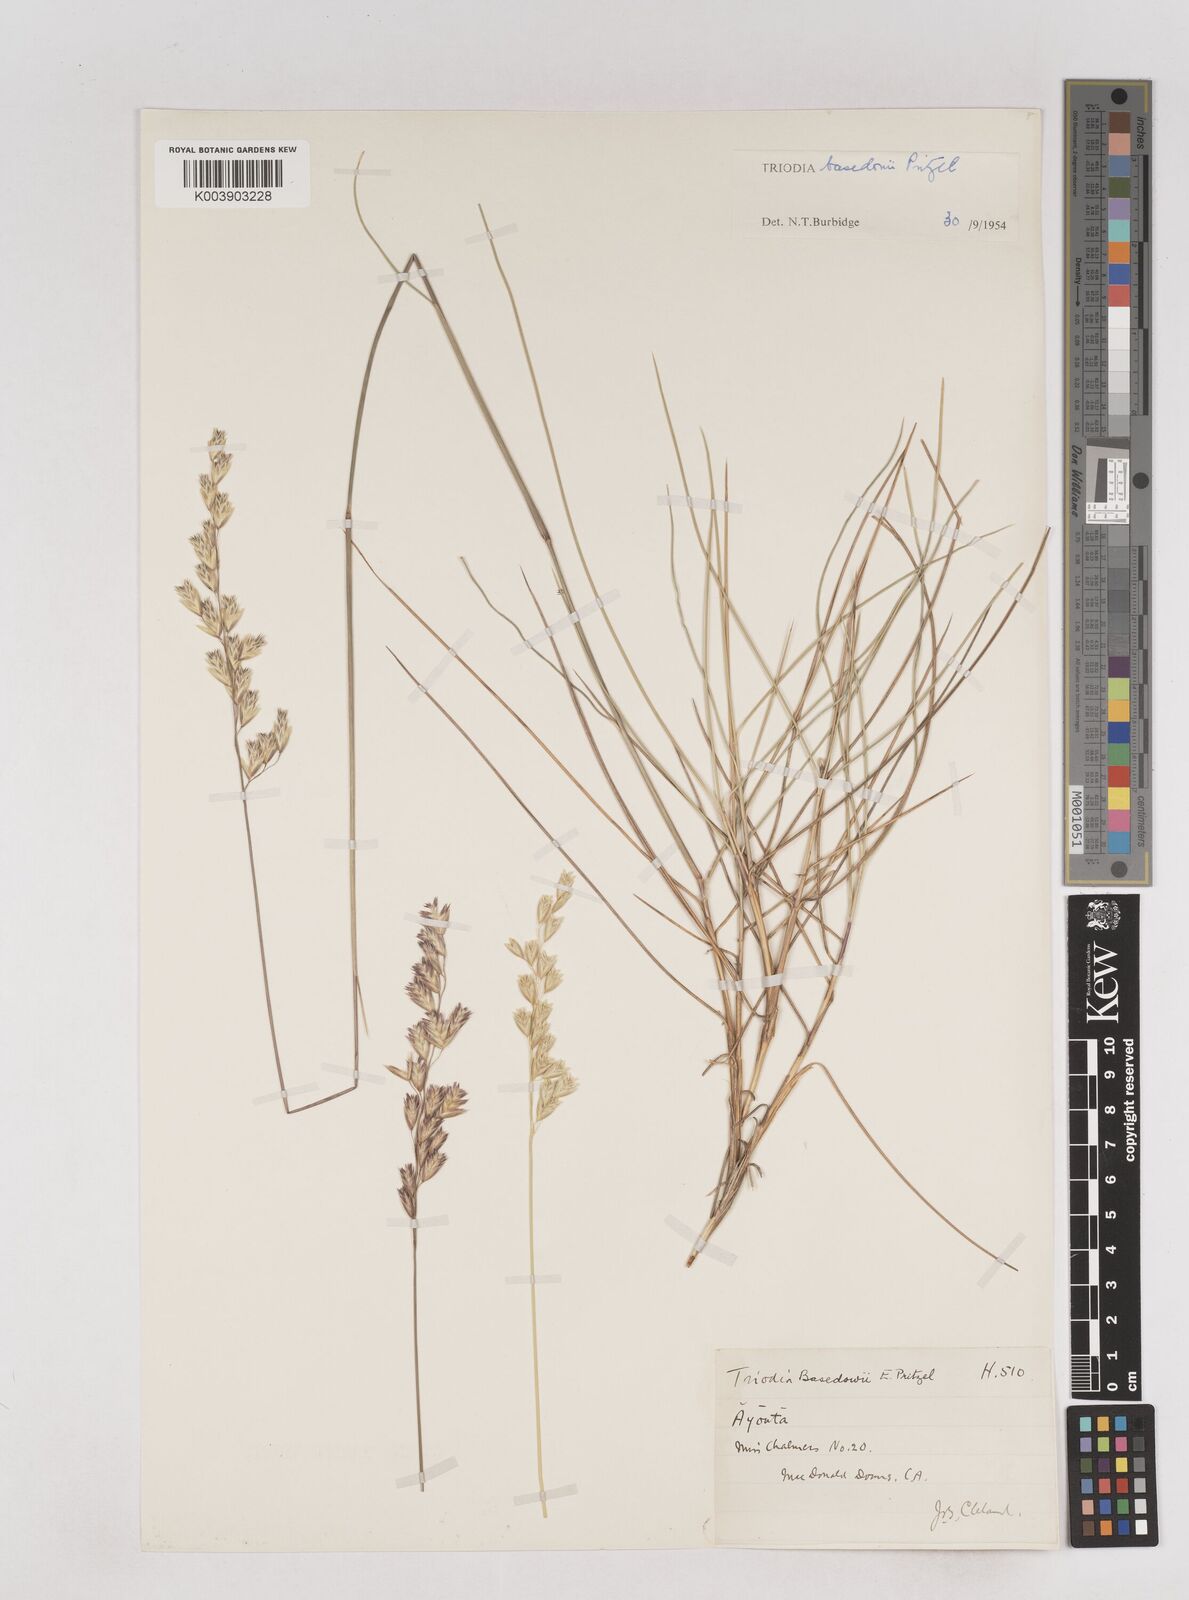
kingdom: Plantae
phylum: Tracheophyta
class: Liliopsida
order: Poales
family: Poaceae
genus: Triodia
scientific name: Triodia basedowii
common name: Hard spinifex
